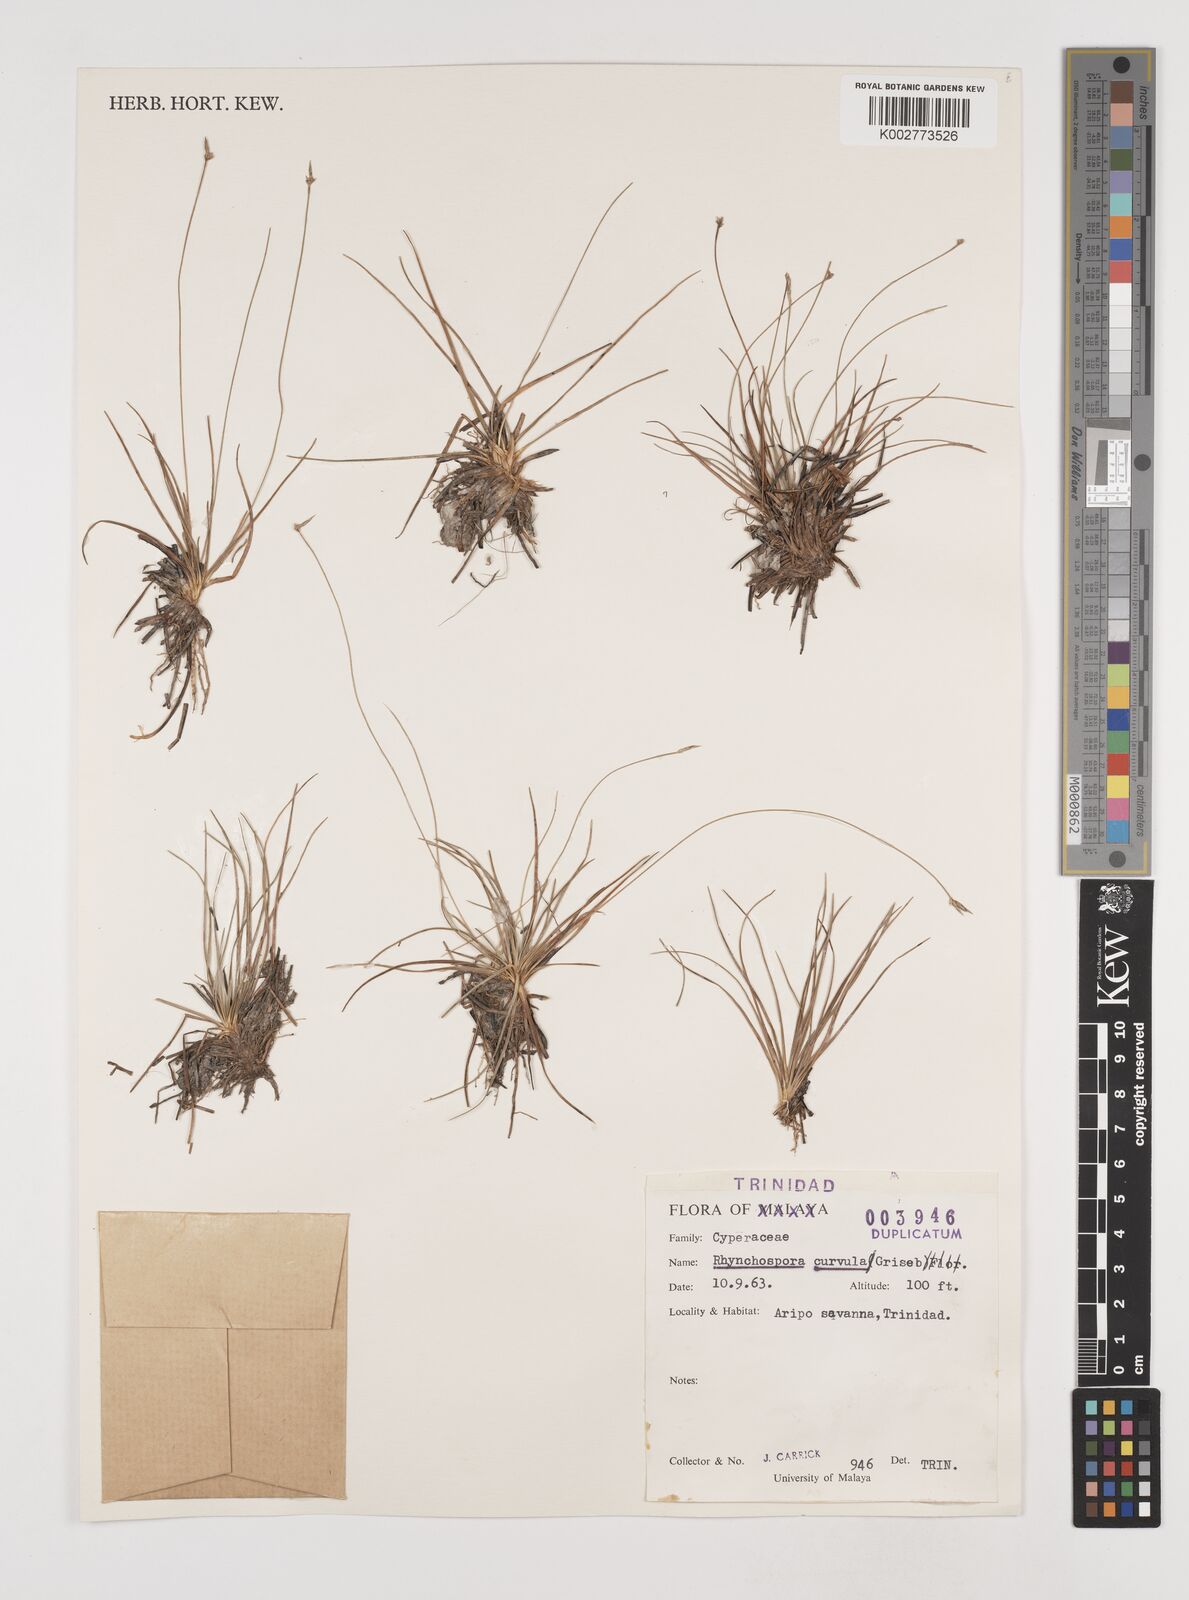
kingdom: Plantae
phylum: Tracheophyta
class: Liliopsida
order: Poales
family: Cyperaceae
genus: Rhynchospora
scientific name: Rhynchospora tenuis
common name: Quill beaksedge
